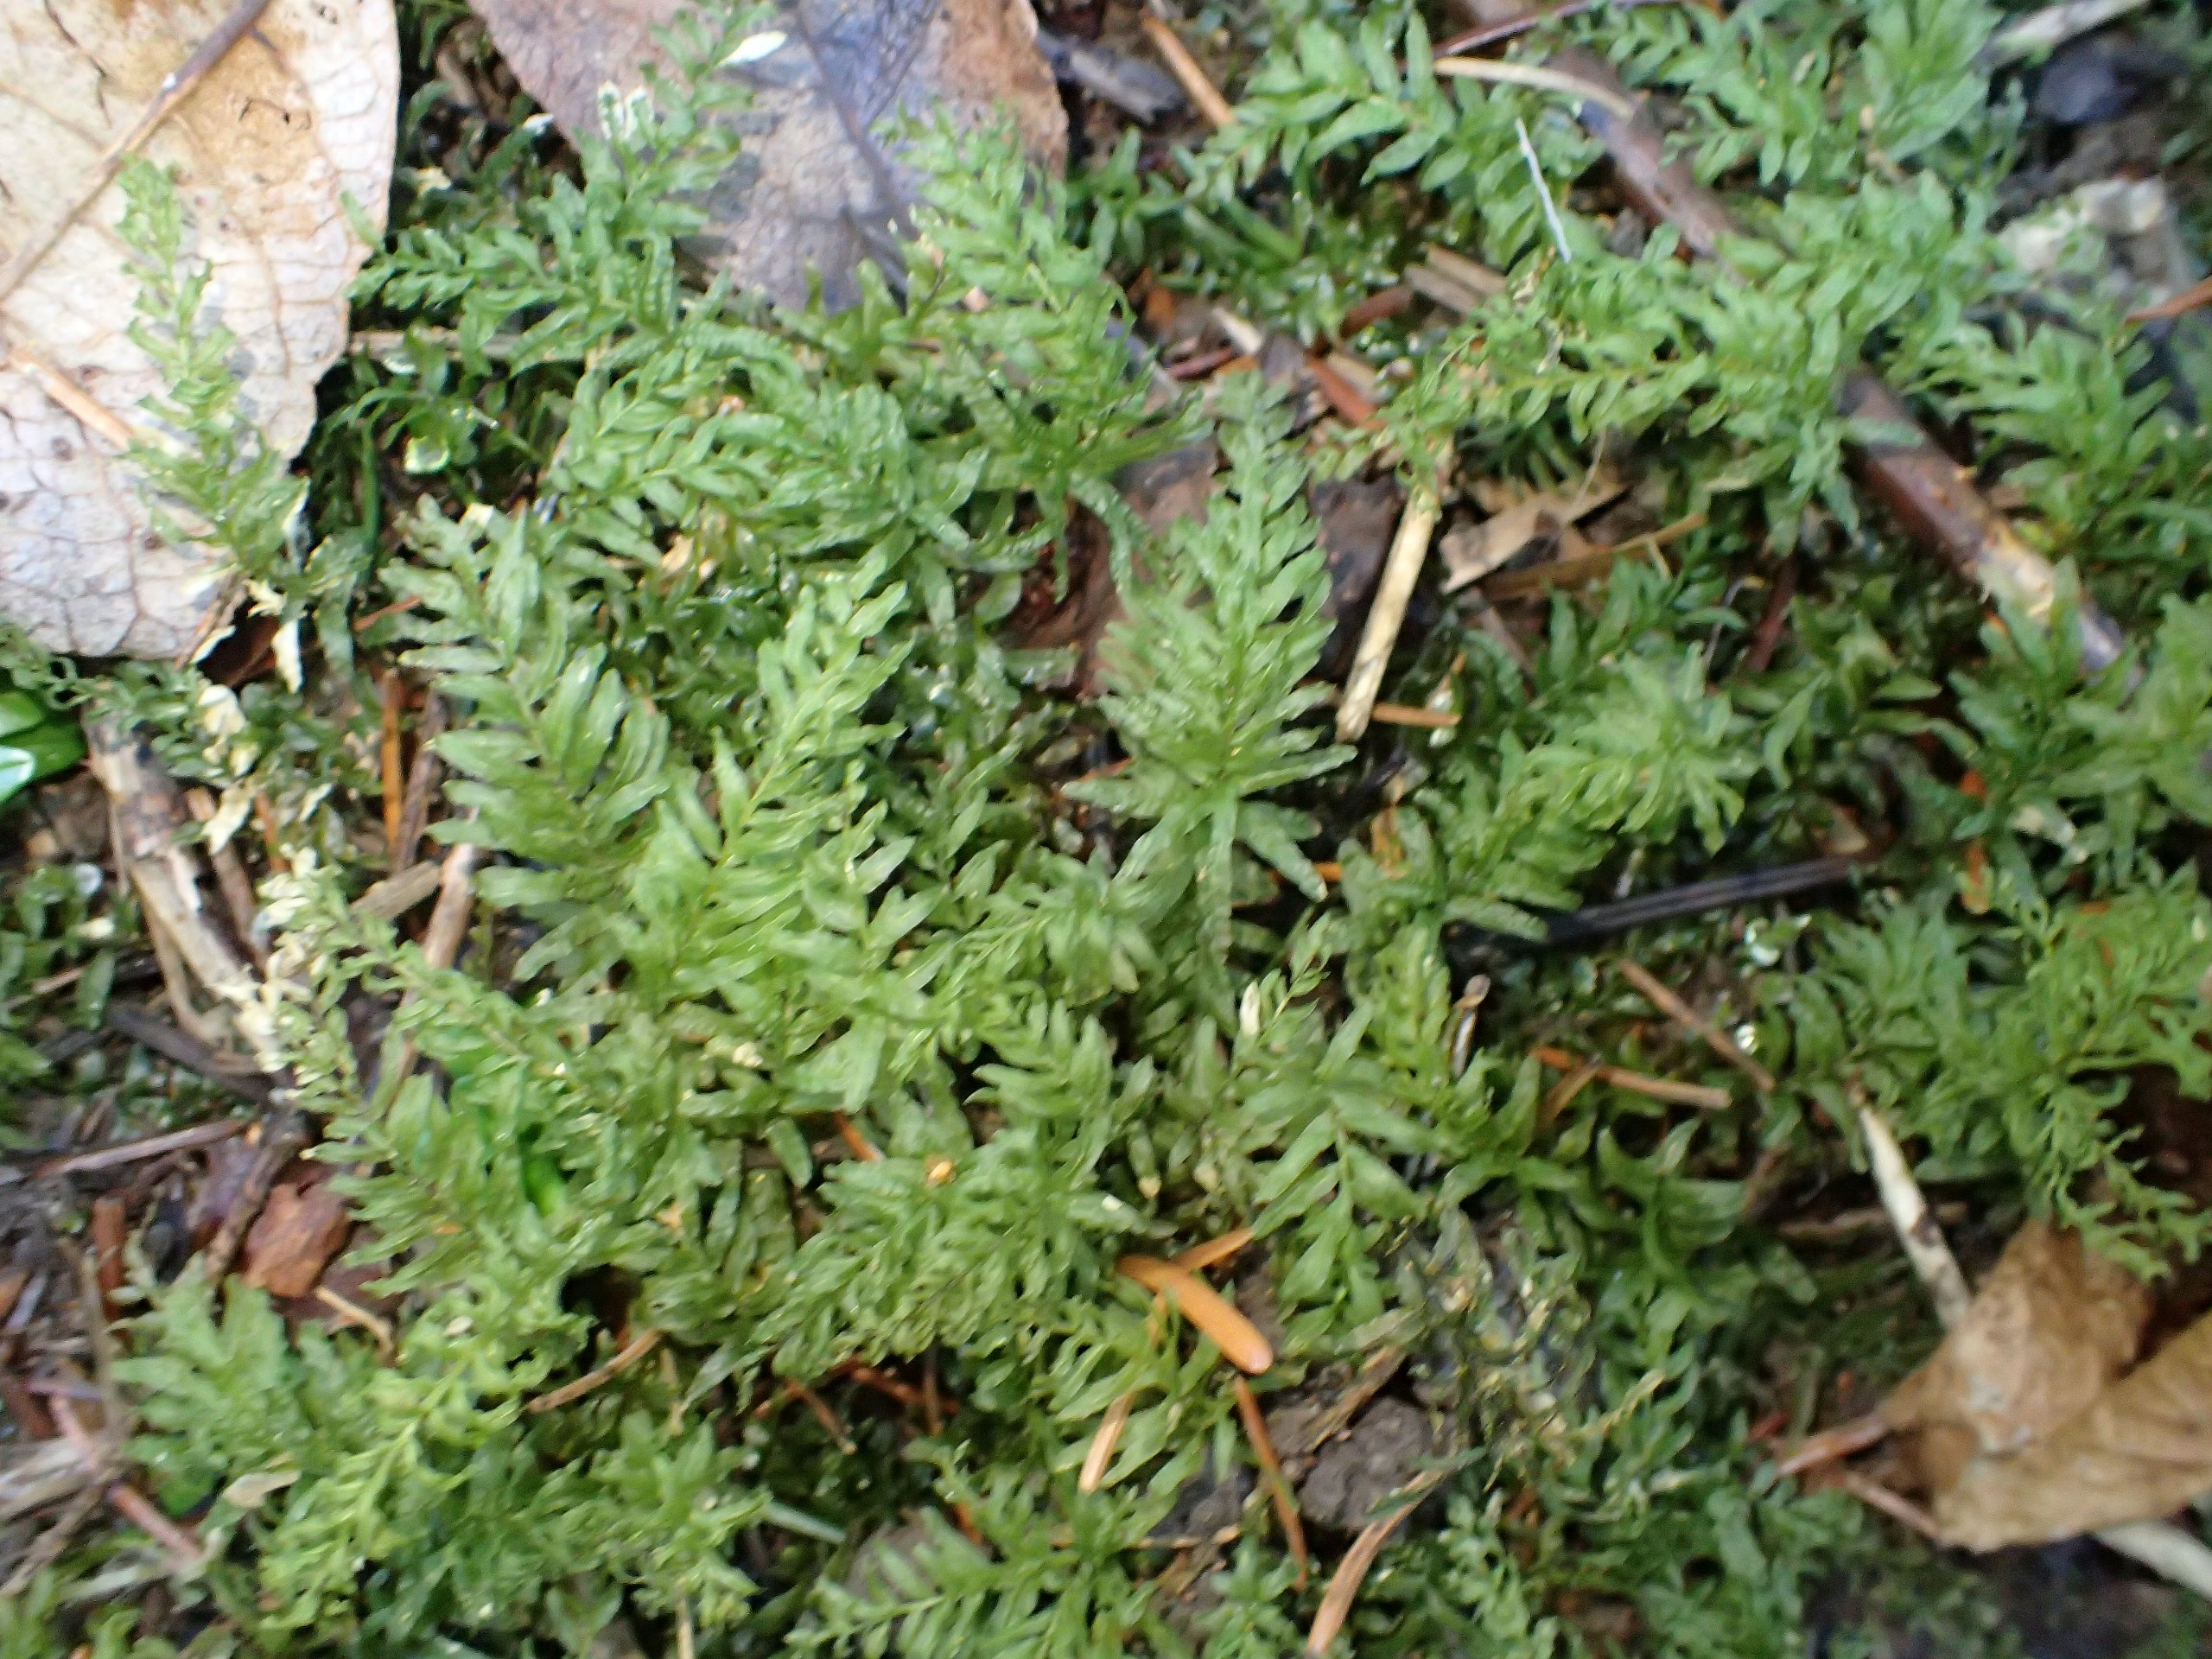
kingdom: Plantae
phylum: Bryophyta
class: Bryopsida
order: Bryales
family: Mniaceae
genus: Plagiomnium
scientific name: Plagiomnium undulatum
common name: Bølget krybstjerne
